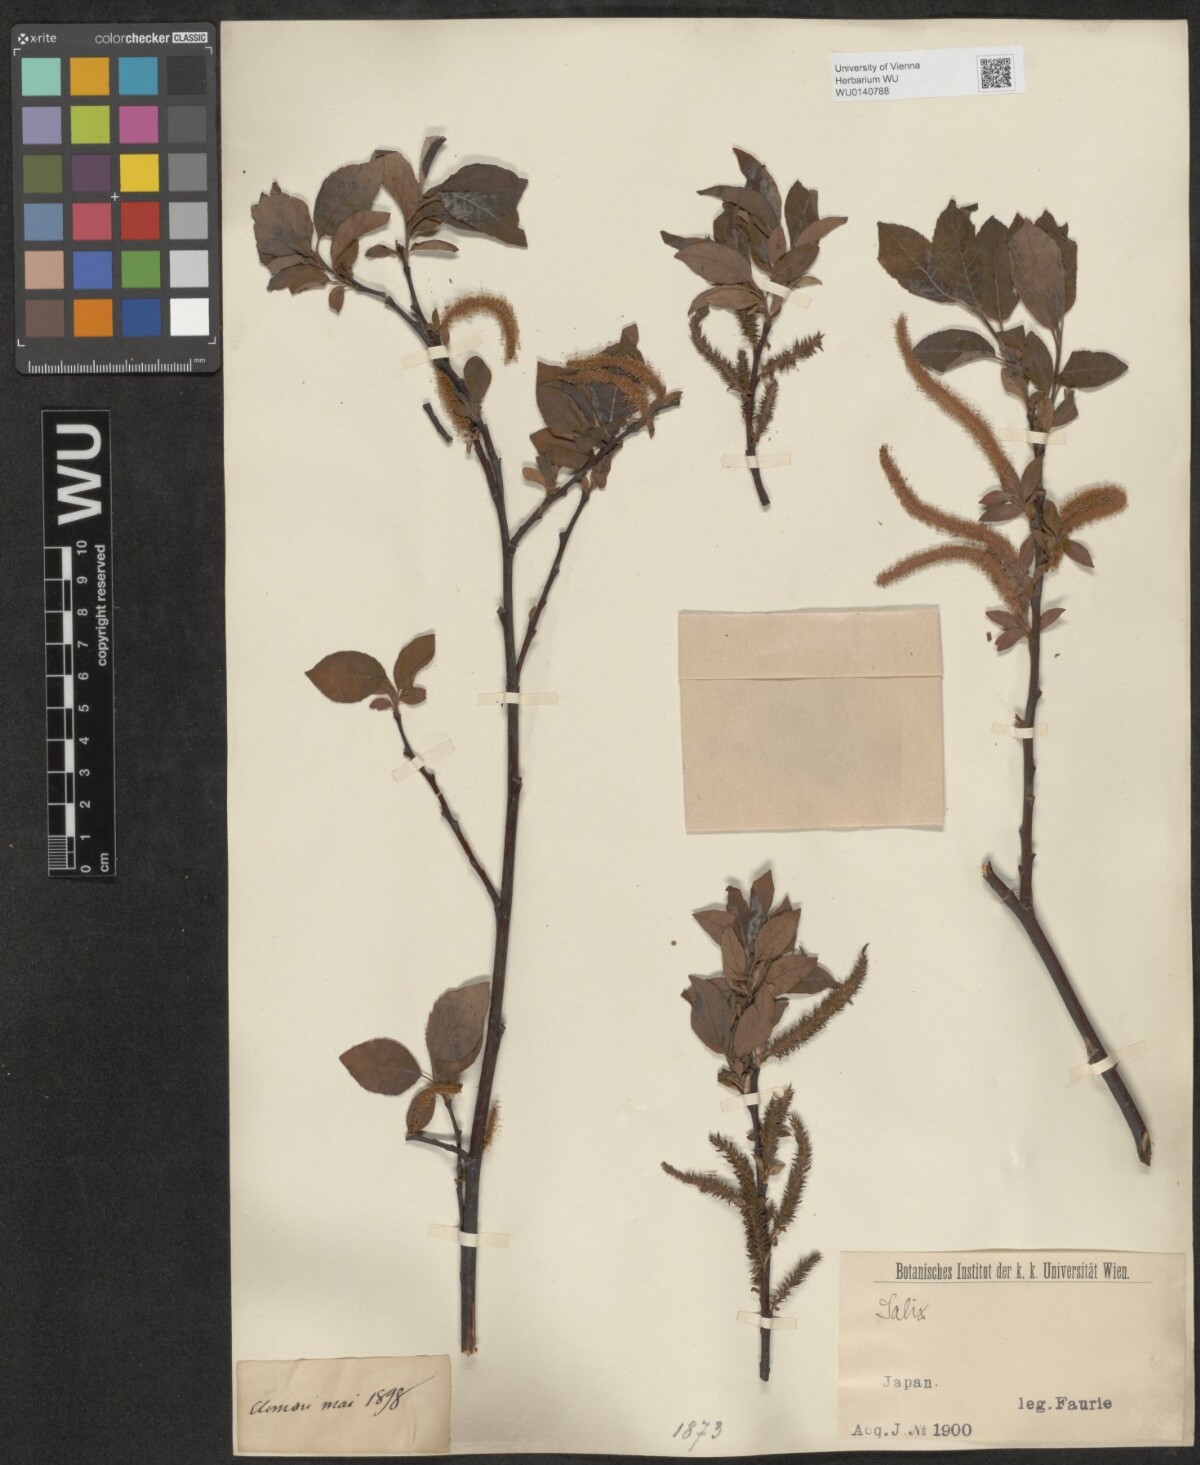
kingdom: Plantae
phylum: Tracheophyta
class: Magnoliopsida
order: Malpighiales
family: Salicaceae
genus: Salix
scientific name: Salix
